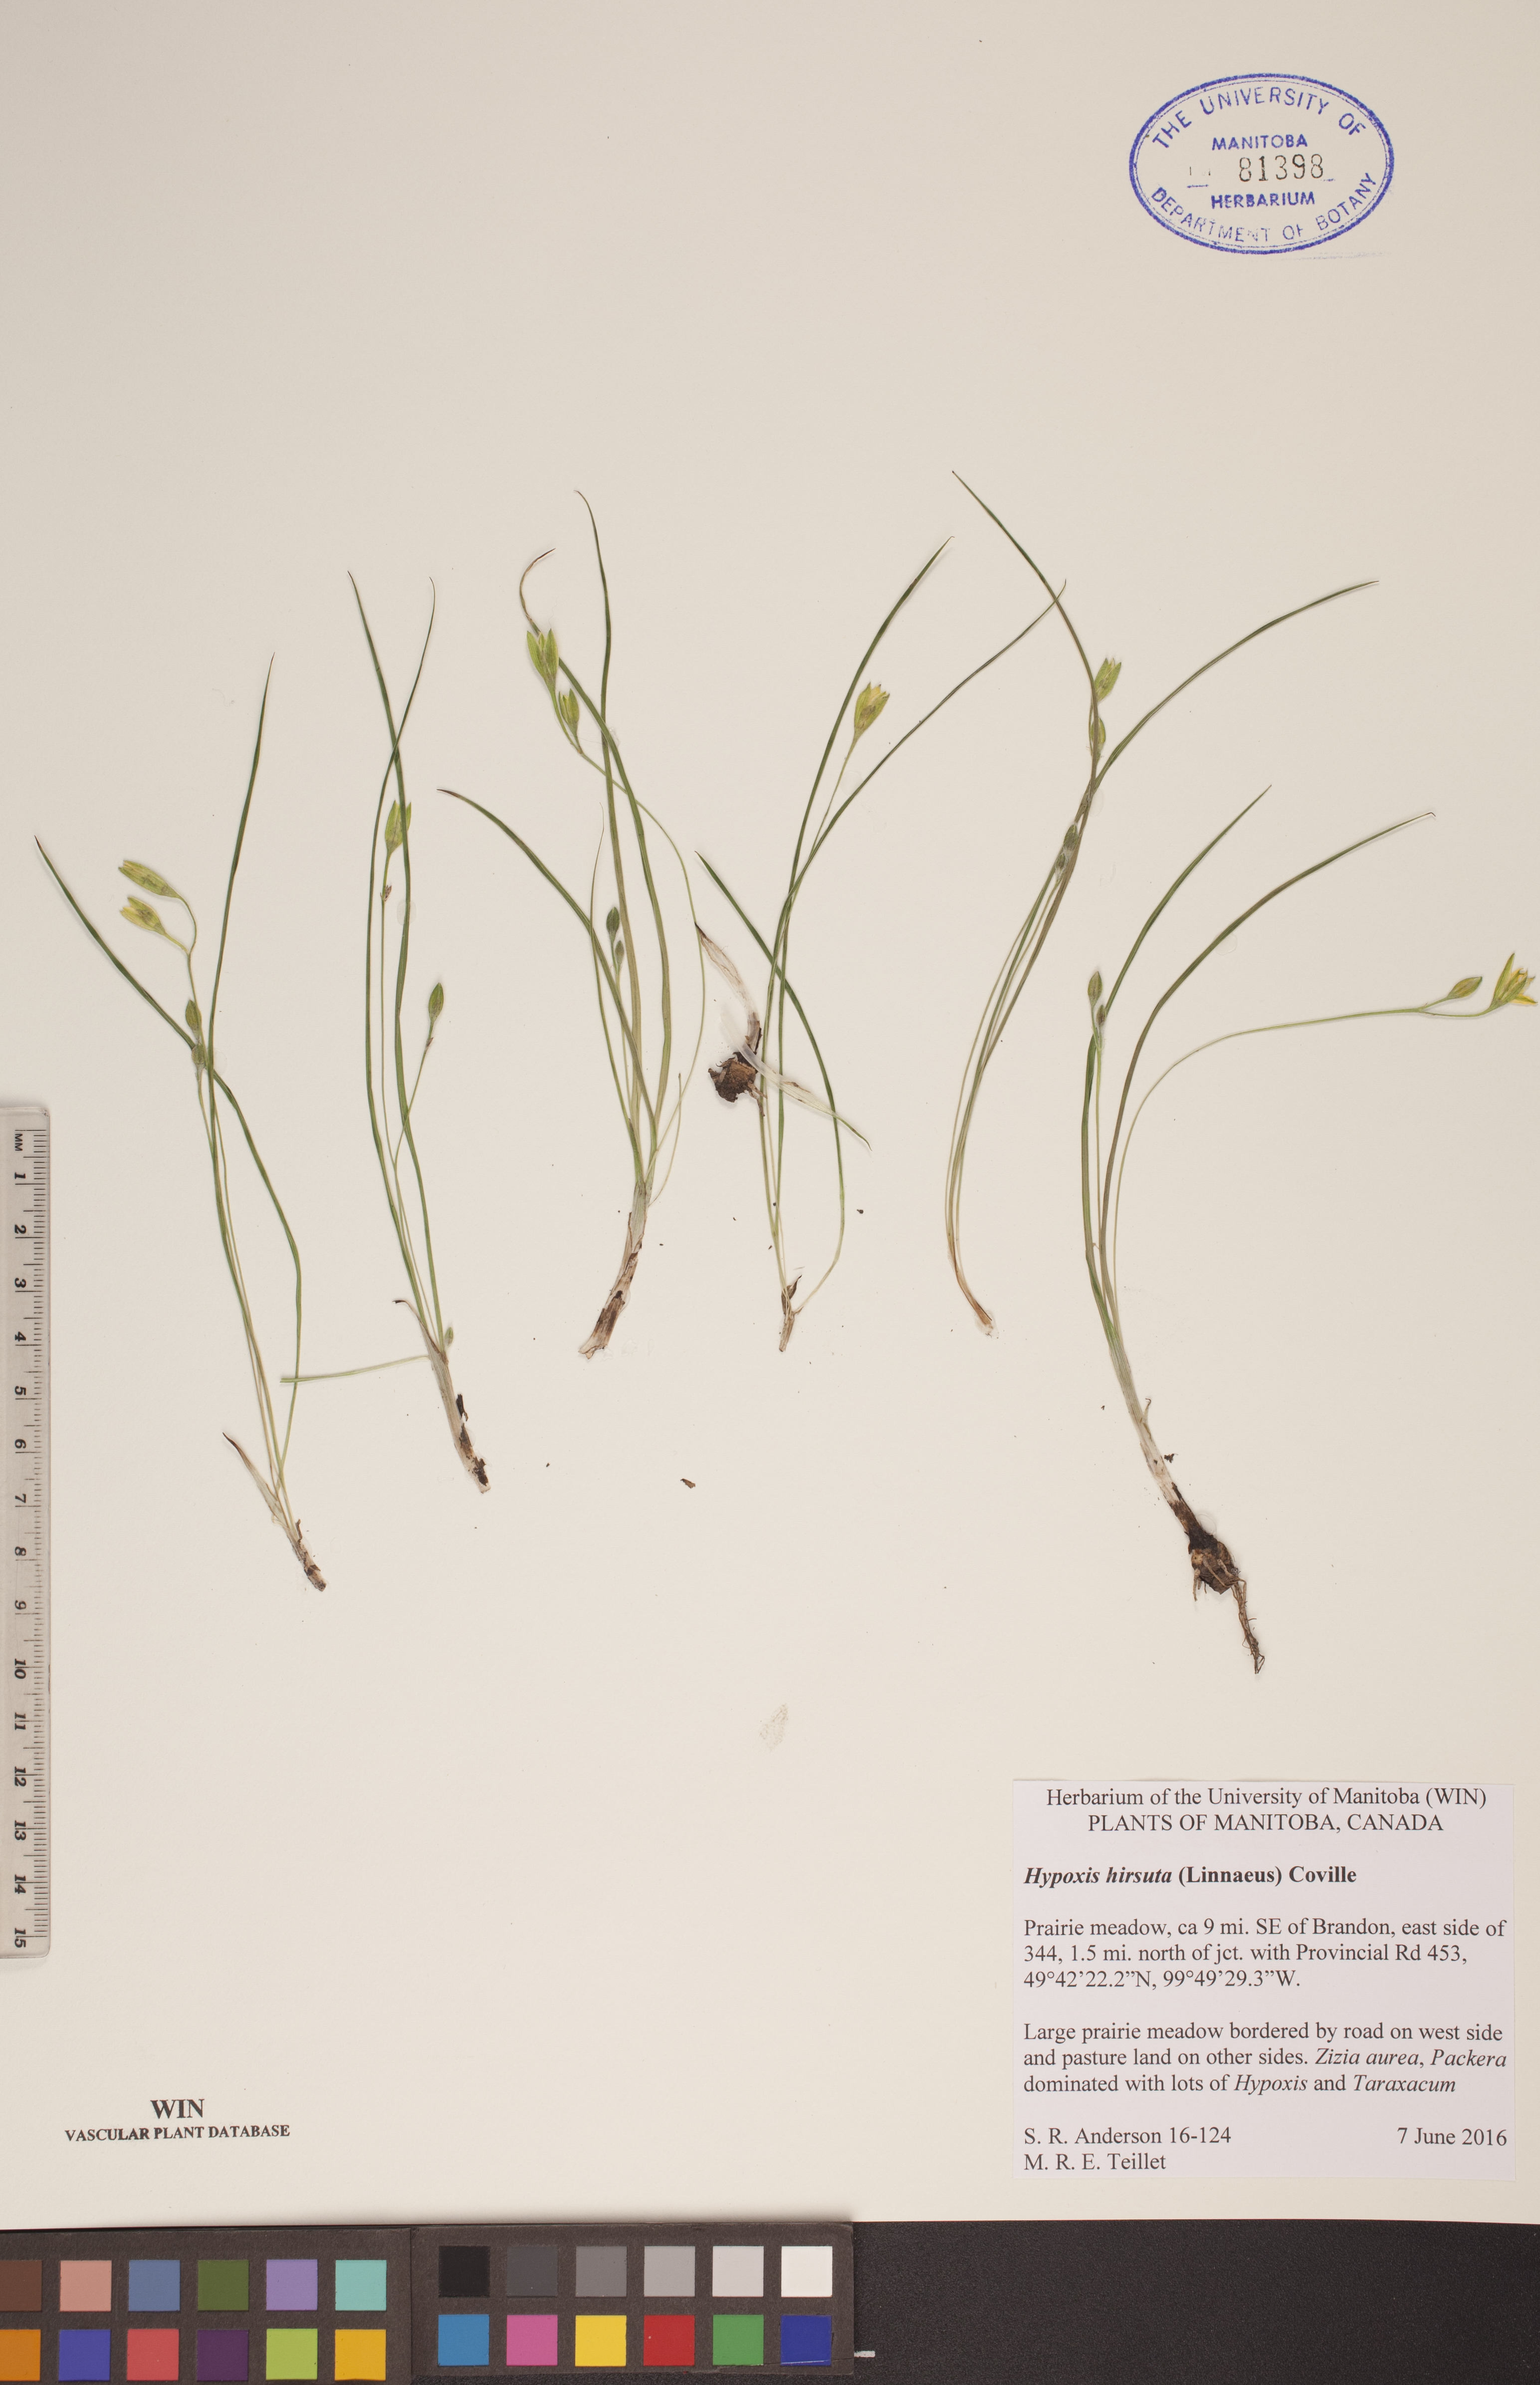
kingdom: Plantae
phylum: Tracheophyta
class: Liliopsida
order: Asparagales
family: Hypoxidaceae
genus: Hypoxis
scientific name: Hypoxis hirsuta
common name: Common goldstar
